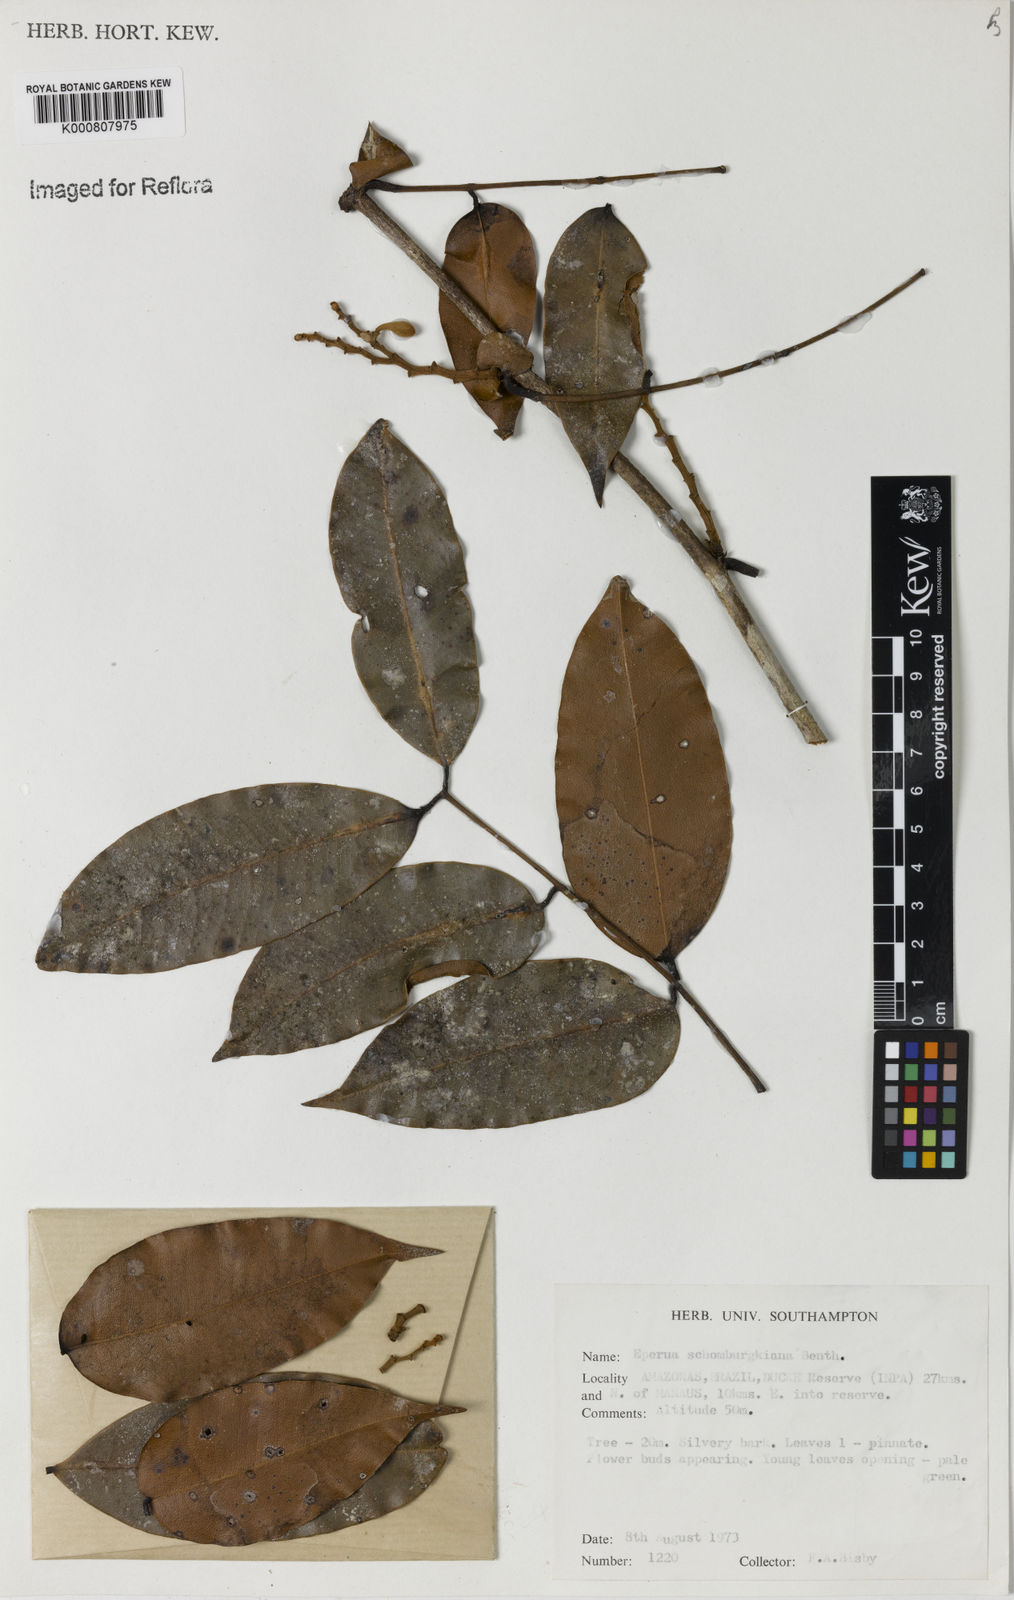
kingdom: Plantae
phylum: Tracheophyta
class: Magnoliopsida
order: Fabales
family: Fabaceae
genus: Eperua
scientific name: Eperua schomburgkiana
